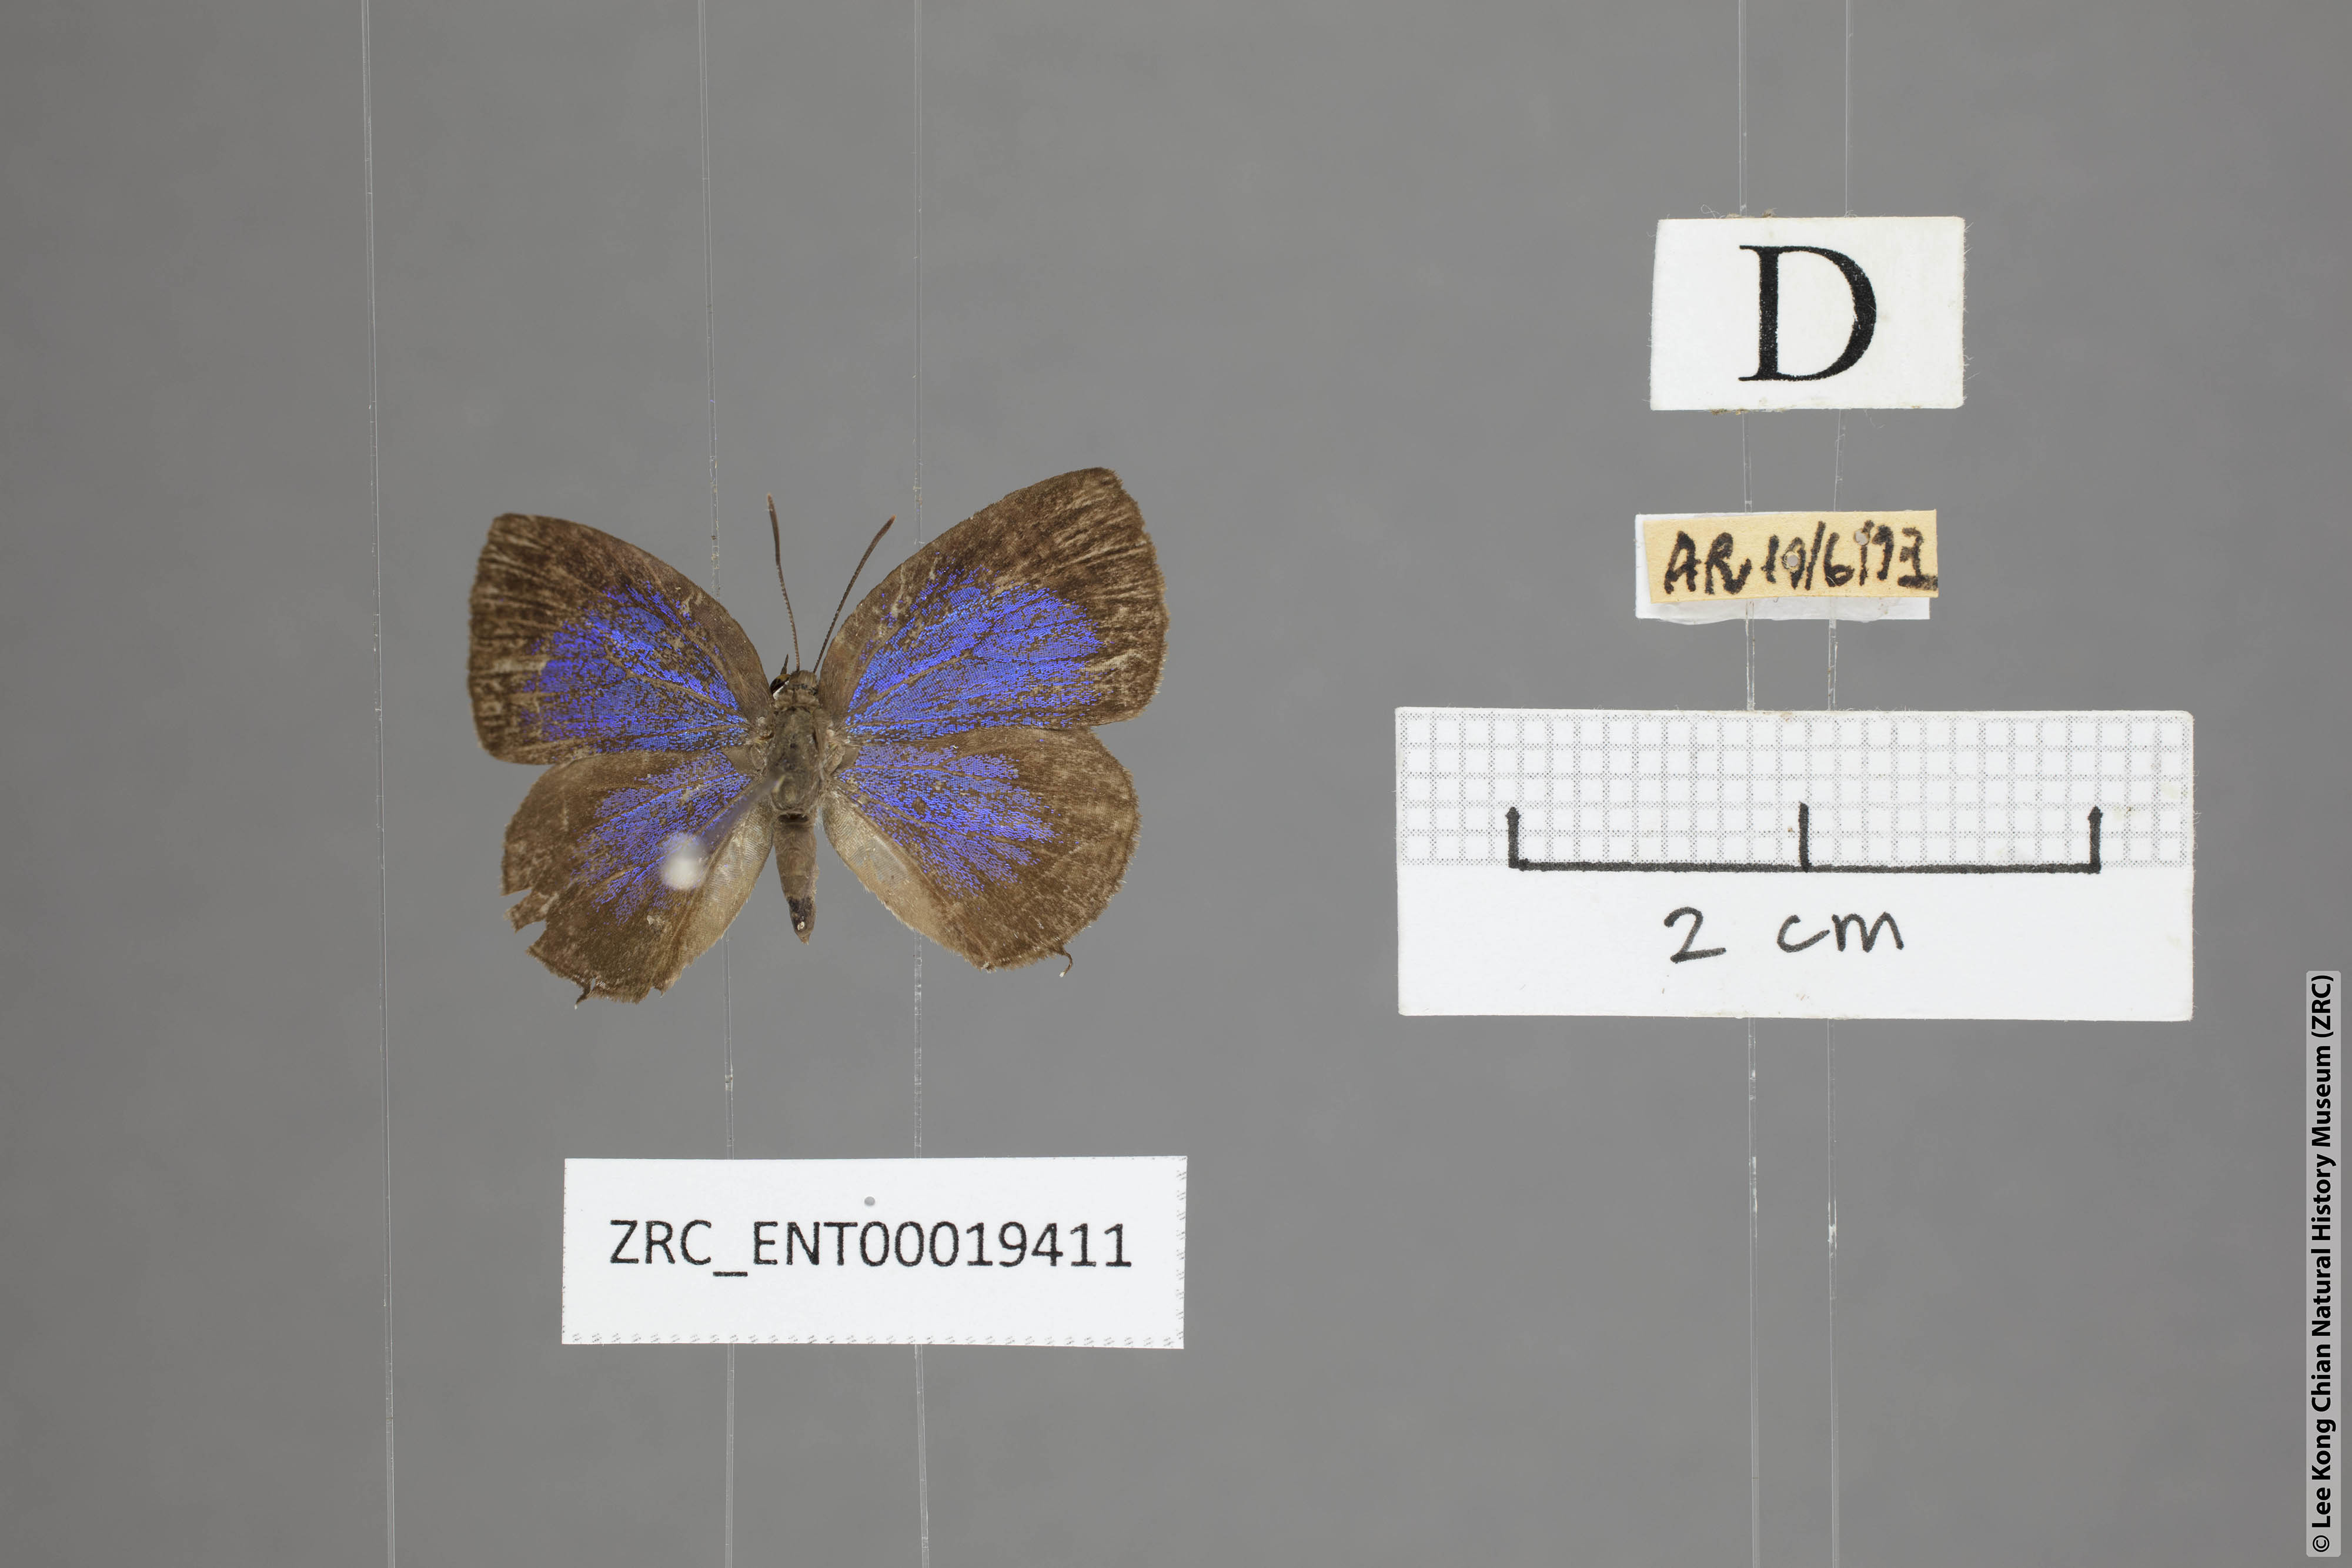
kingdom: Animalia
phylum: Arthropoda
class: Insecta
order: Lepidoptera
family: Lycaenidae
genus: Arhopala
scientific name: Arhopala elizabethae
